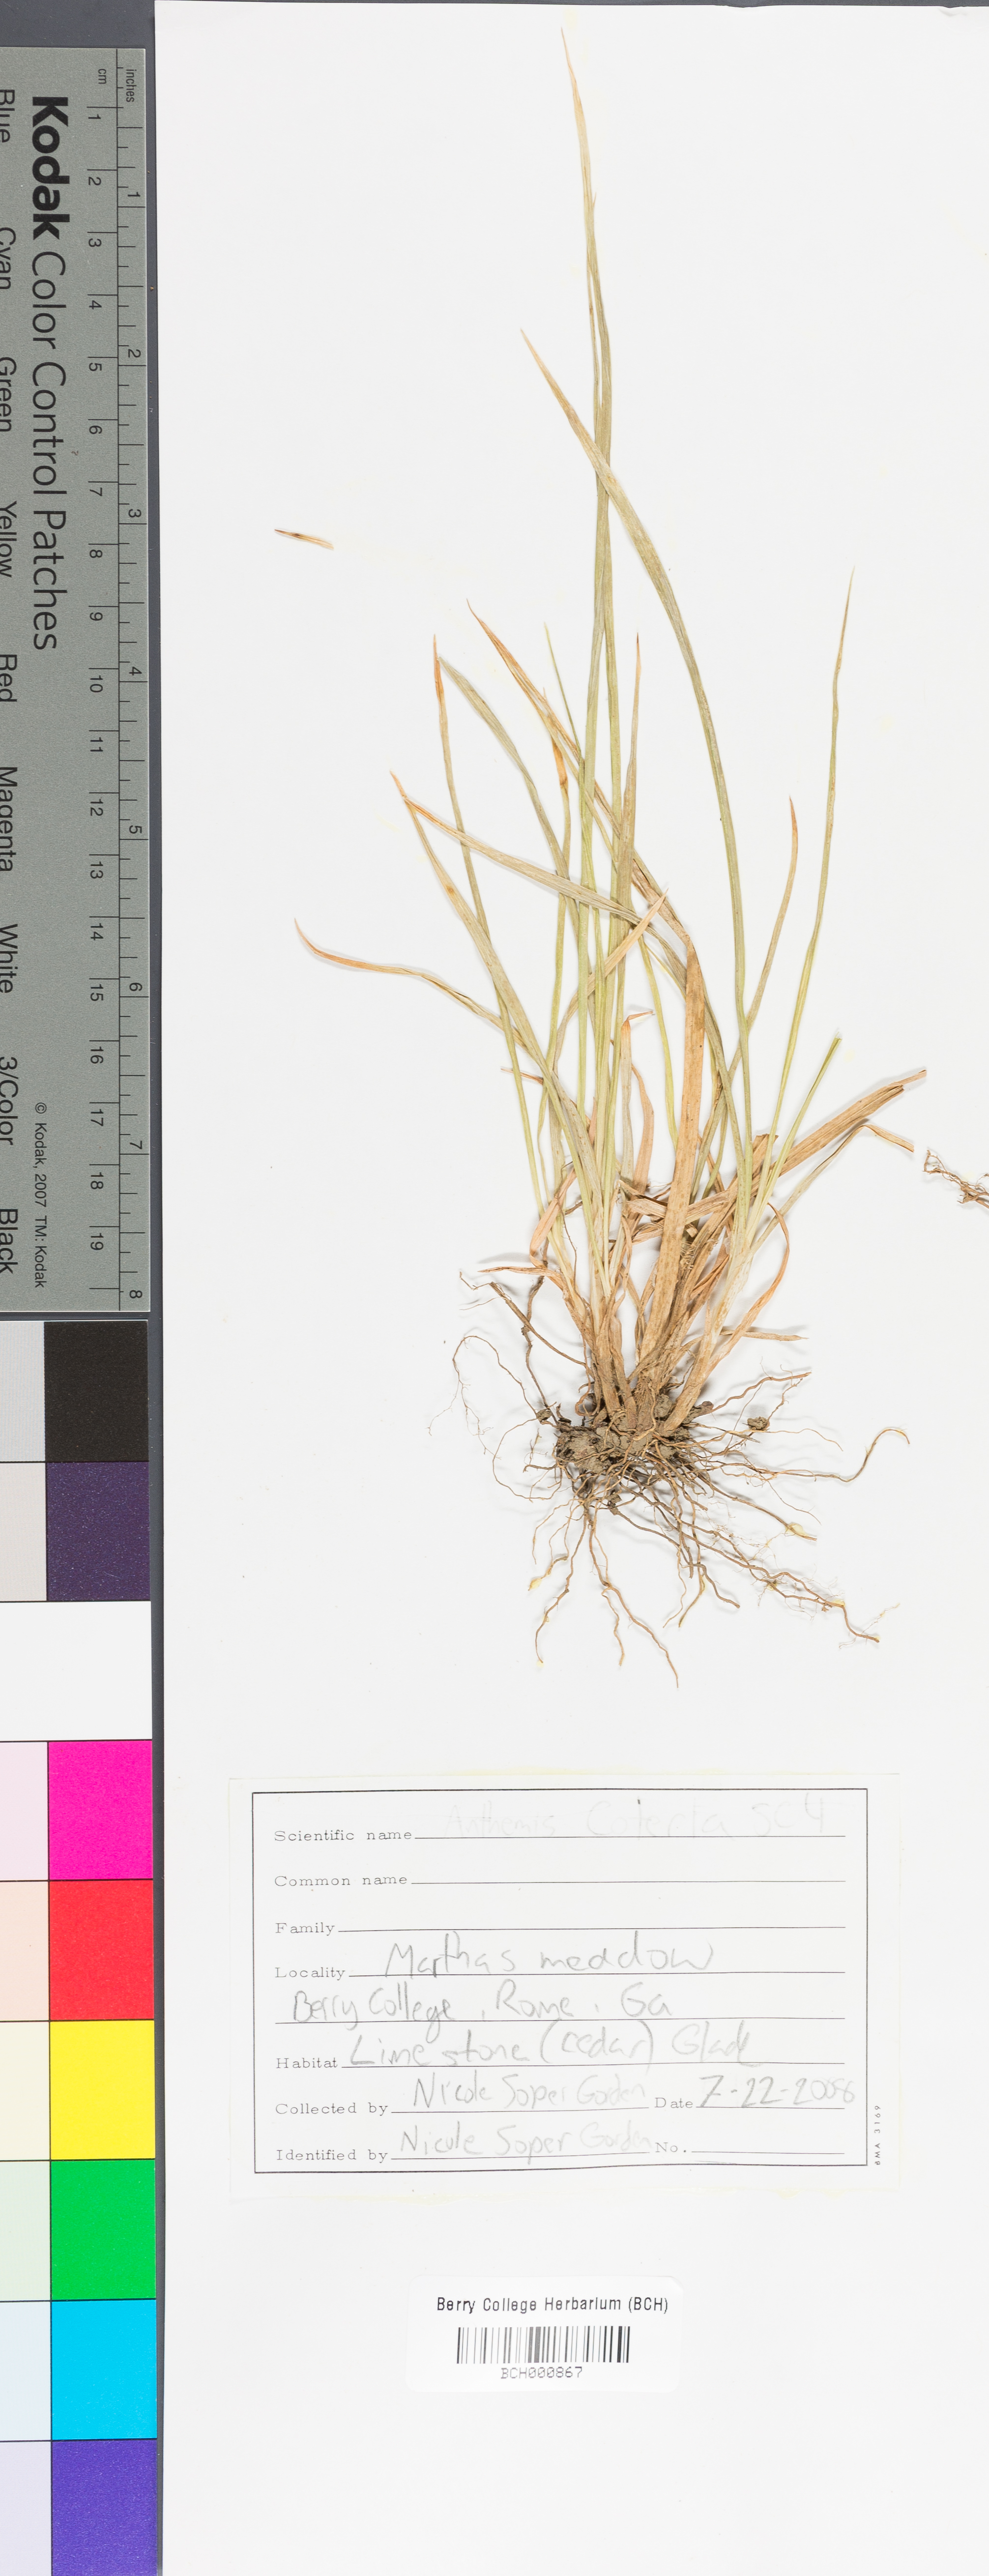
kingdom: Plantae
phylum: Tracheophyta
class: Magnoliopsida
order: Lamiales
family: Acanthaceae
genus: Adhatoda
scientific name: Adhatoda
